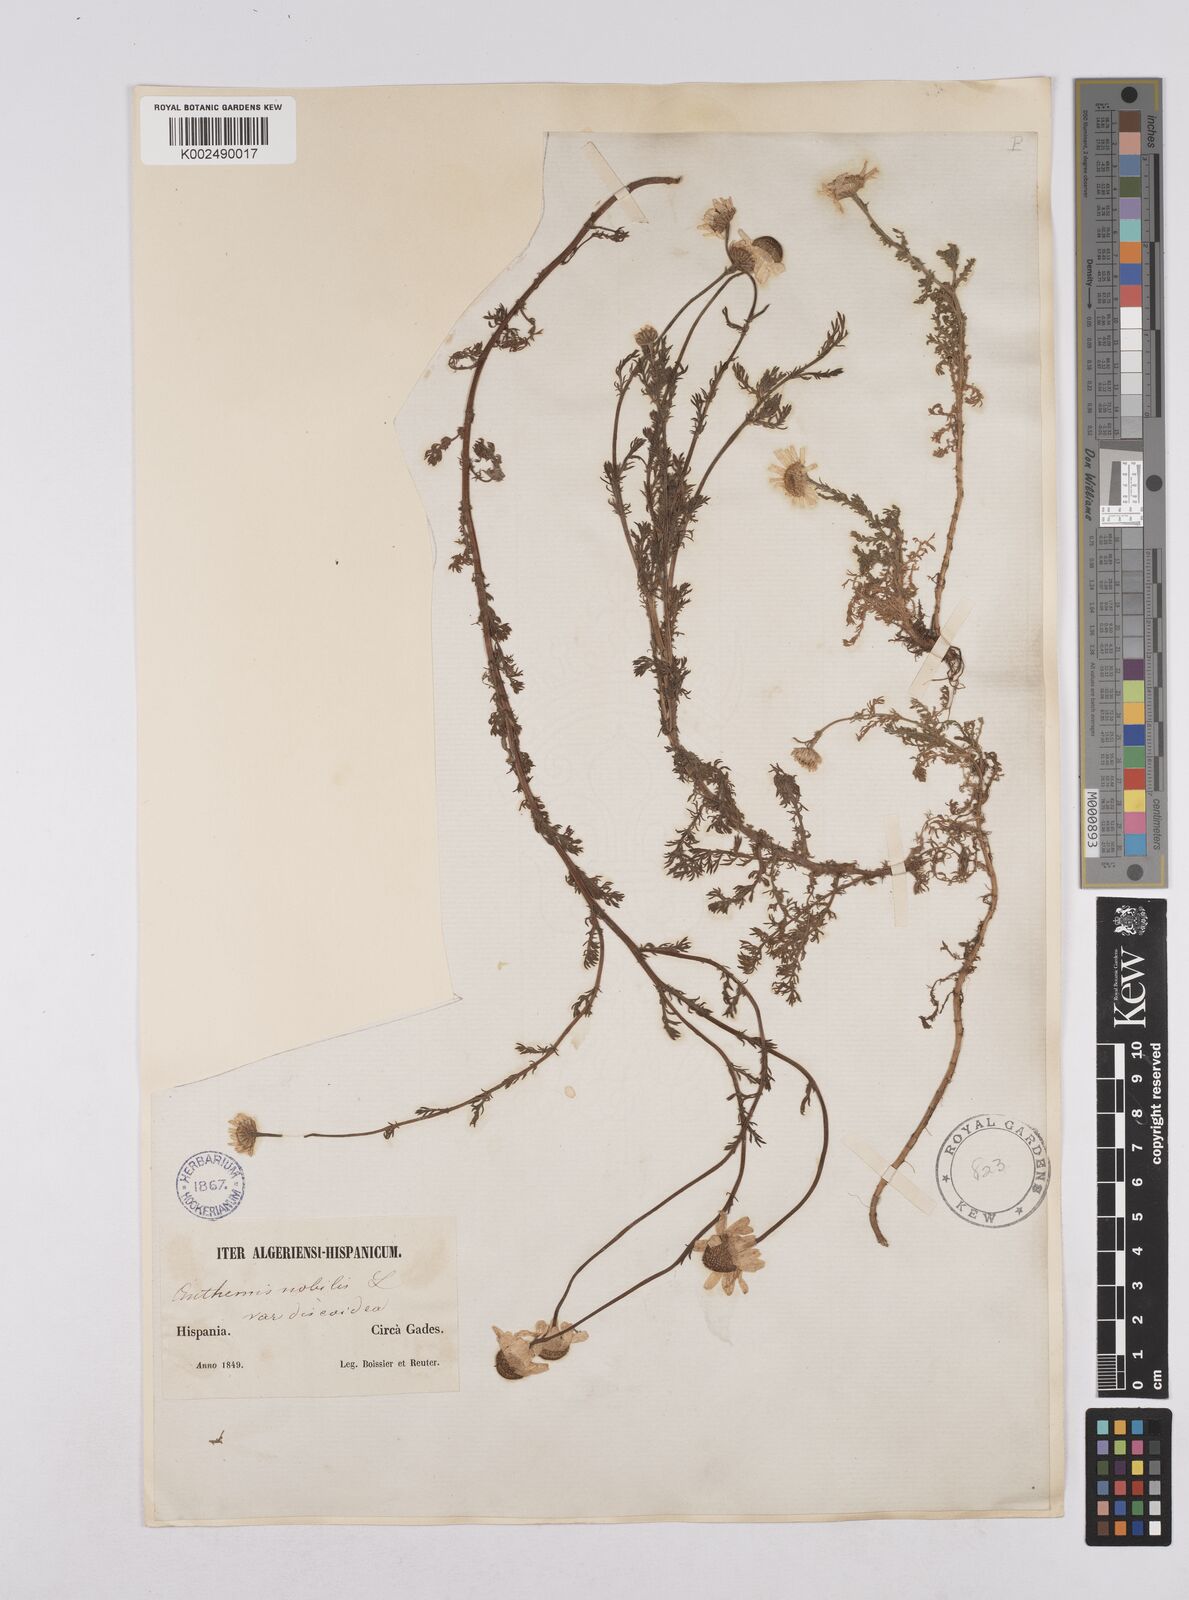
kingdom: Plantae
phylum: Tracheophyta
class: Magnoliopsida
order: Asterales
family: Asteraceae
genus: Chamaemelum
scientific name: Chamaemelum
